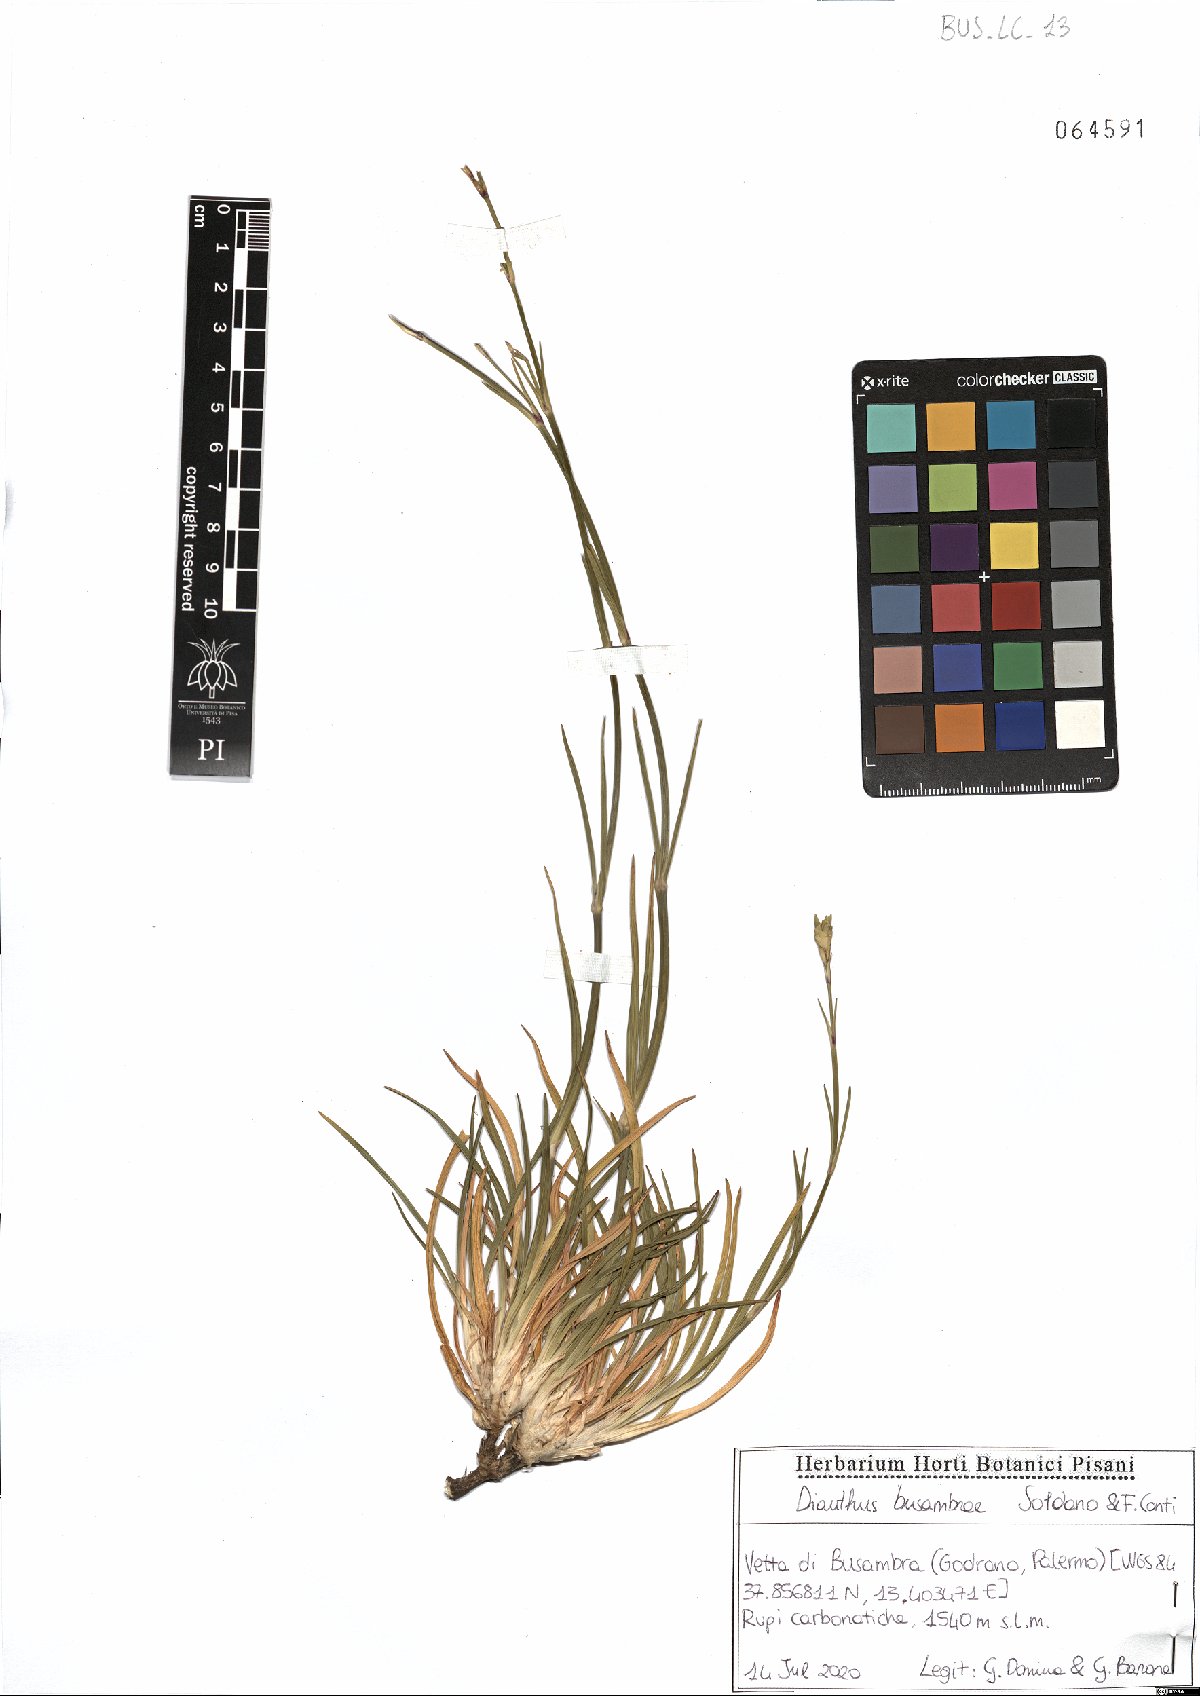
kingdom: Plantae
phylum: Tracheophyta
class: Magnoliopsida
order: Caryophyllales
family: Caryophyllaceae
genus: Dianthus
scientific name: Dianthus busambrae
